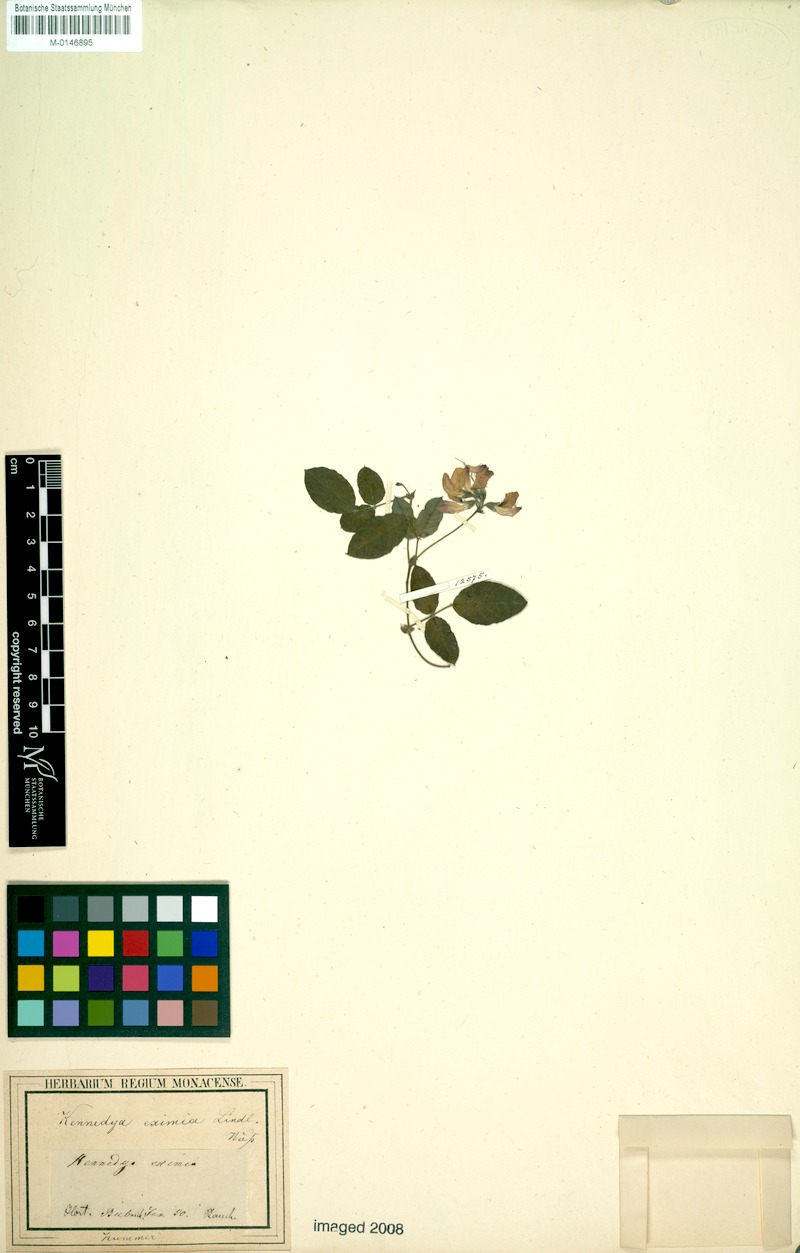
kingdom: Plantae
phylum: Tracheophyta
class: Magnoliopsida
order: Fabales
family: Fabaceae
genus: Kennedia
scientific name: Kennedia coccinea
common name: Coralvine
